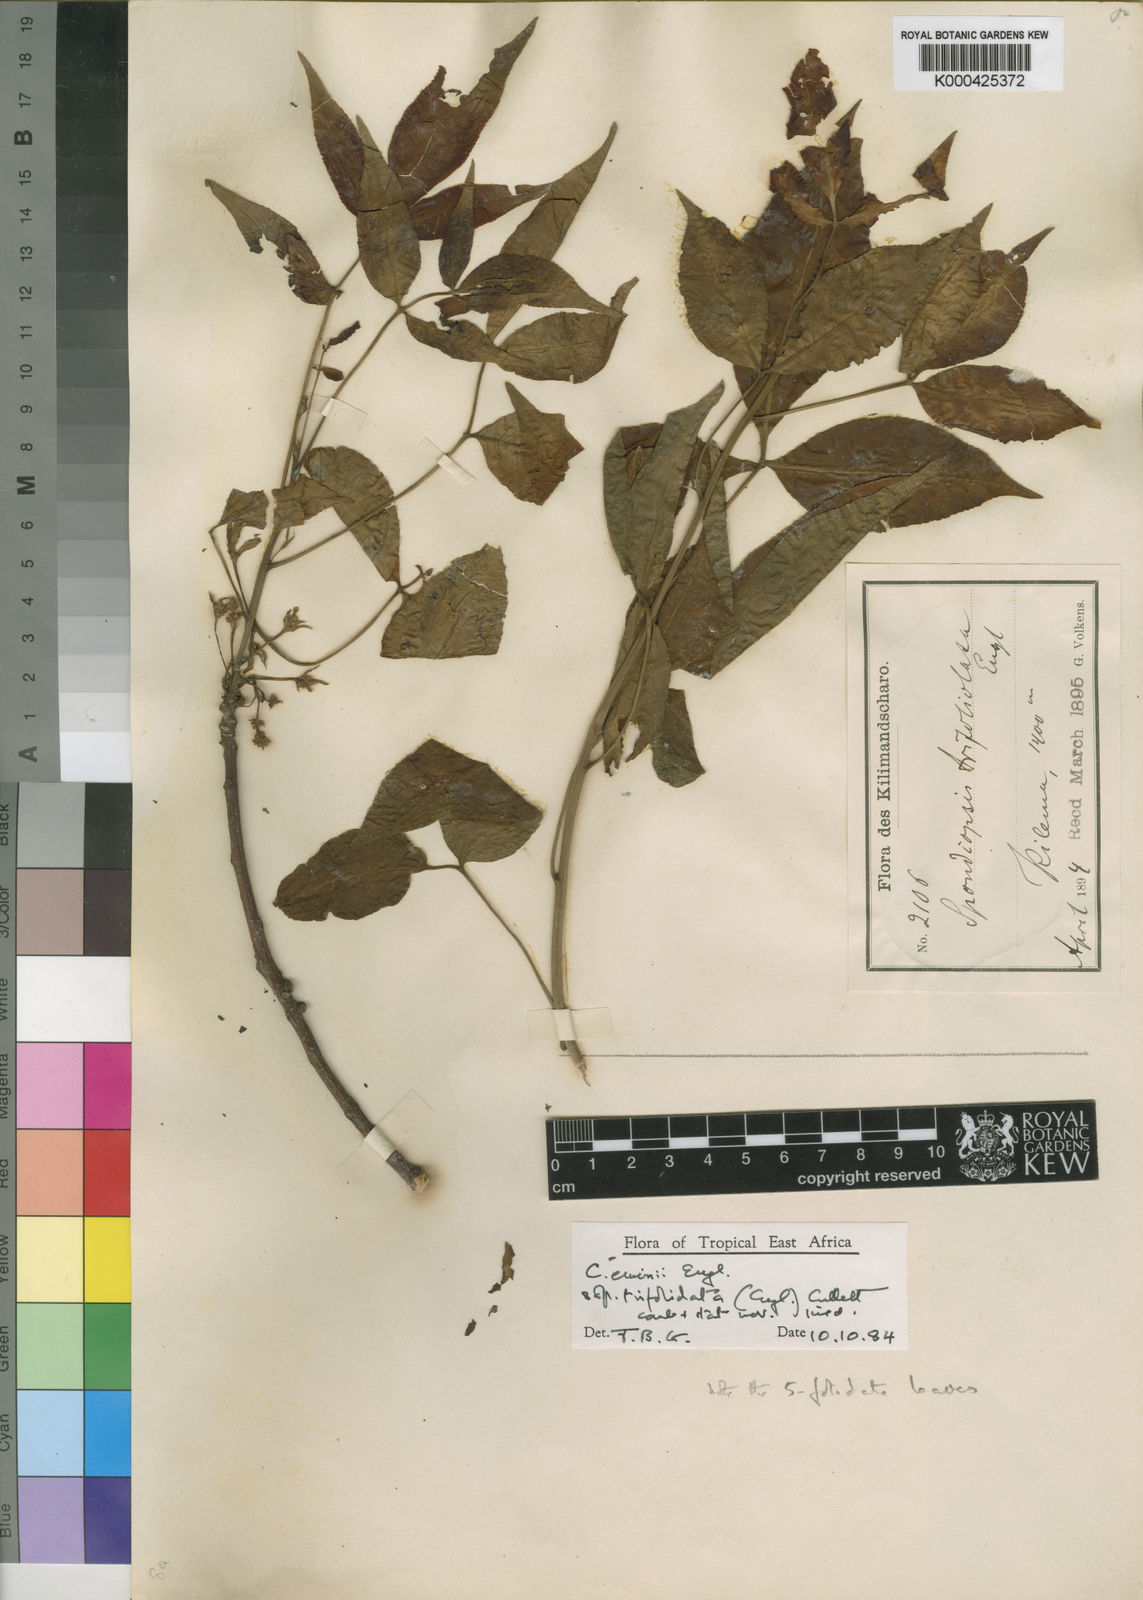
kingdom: Plantae
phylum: Tracheophyta
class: Magnoliopsida
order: Sapindales
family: Burseraceae
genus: Commiphora
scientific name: Commiphora eminii
